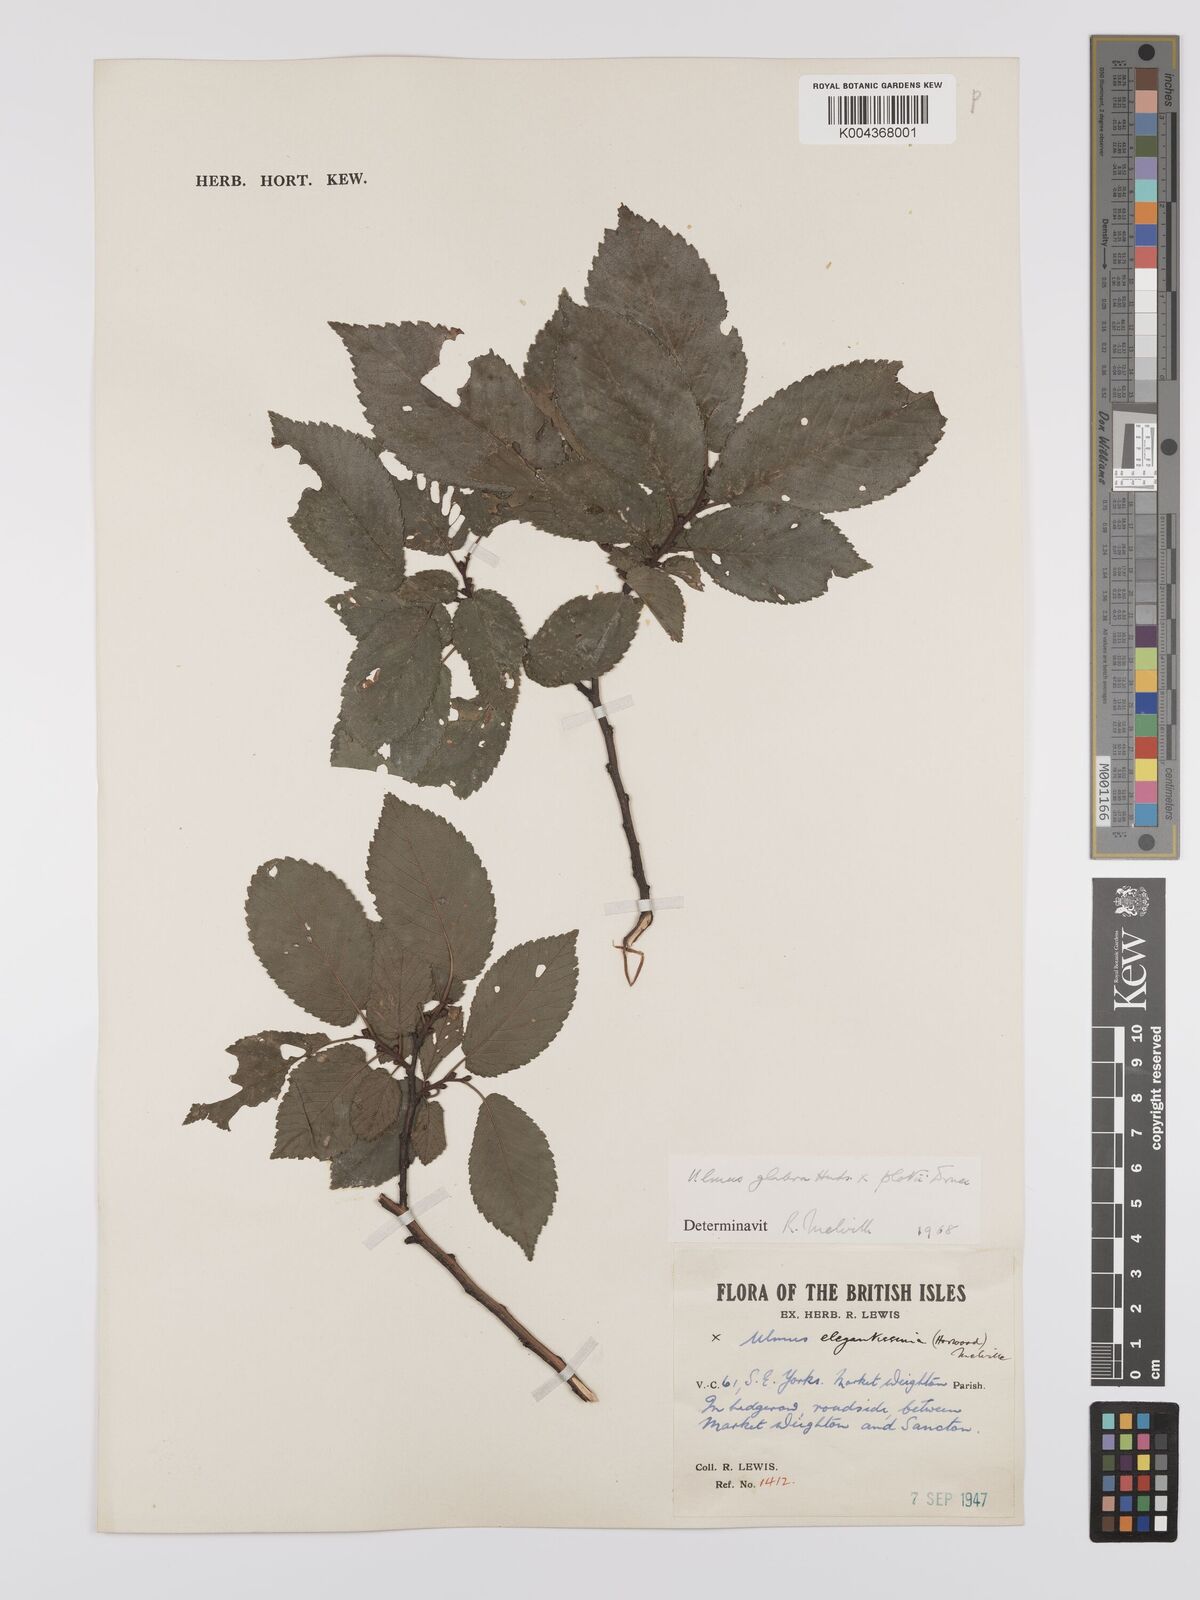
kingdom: Plantae
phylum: Tracheophyta
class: Magnoliopsida
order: Rosales
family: Ulmaceae
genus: Ulmus
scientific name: Ulmus minor
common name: Small-leaved elm
